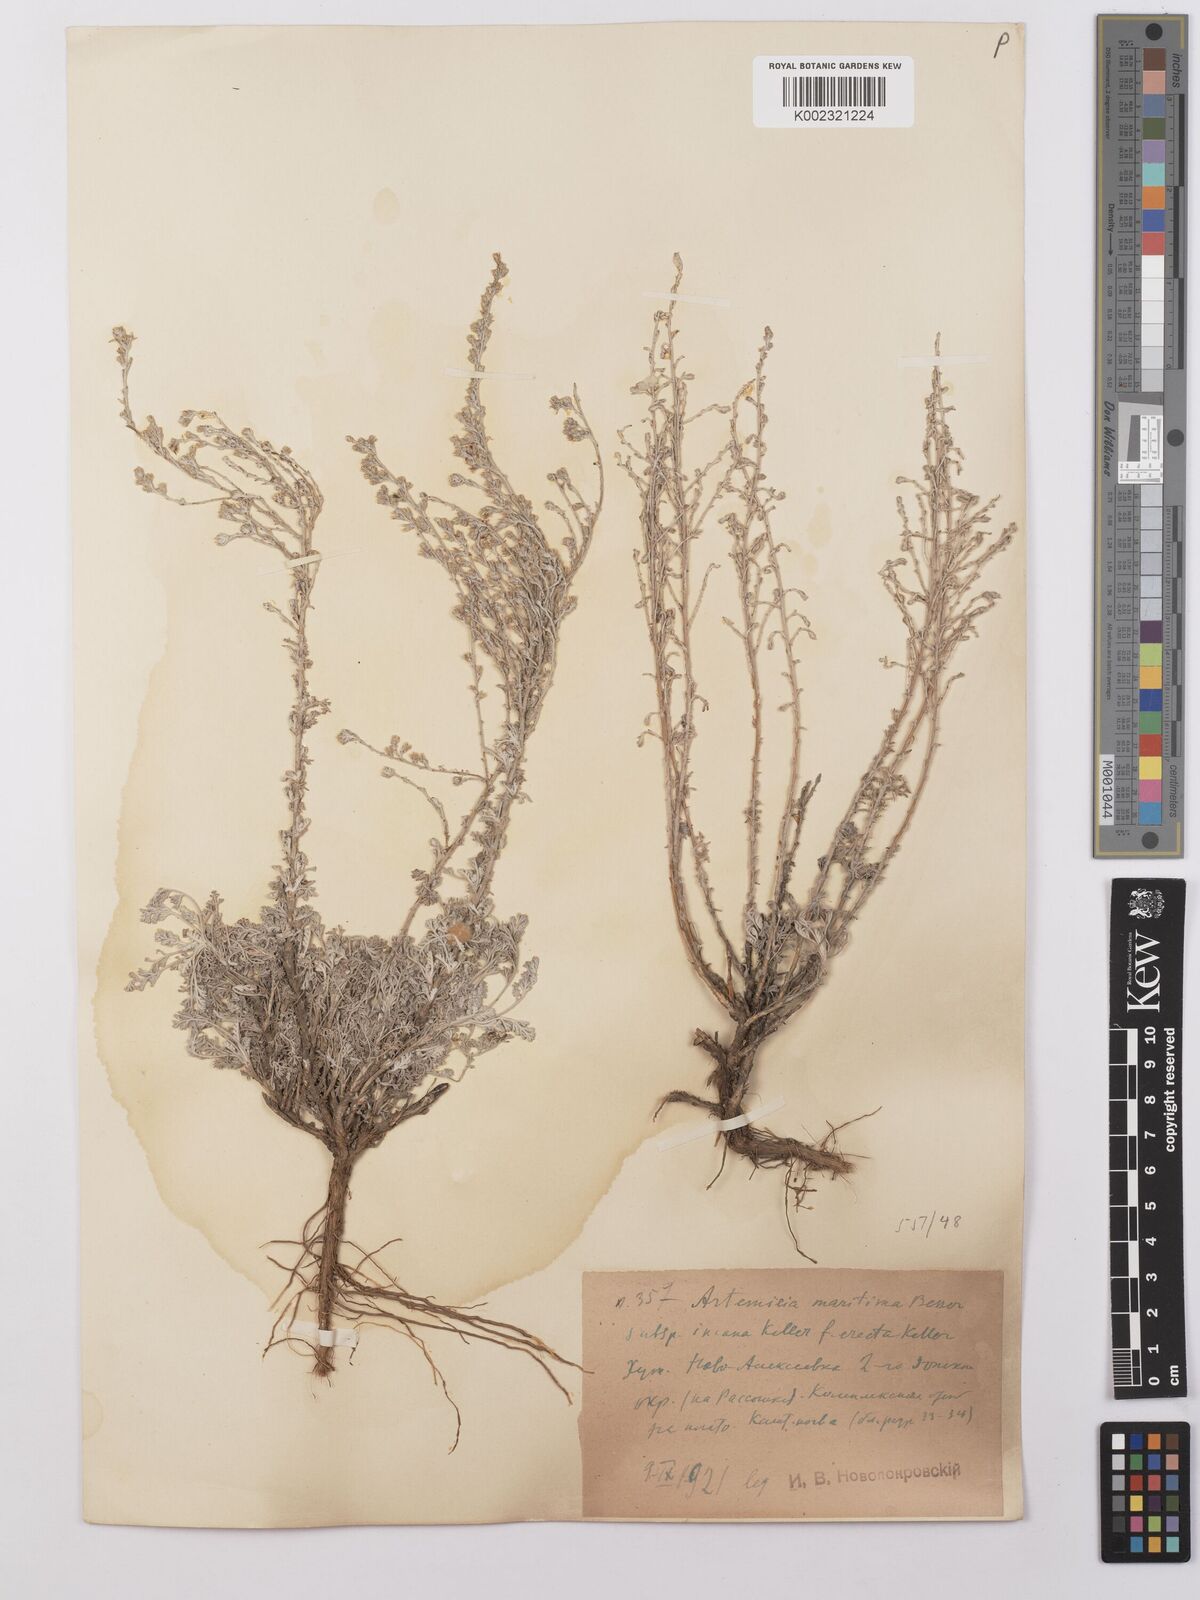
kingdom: Plantae
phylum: Tracheophyta
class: Magnoliopsida
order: Asterales
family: Asteraceae
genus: Artemisia
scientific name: Artemisia maritima
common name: Wormseed
